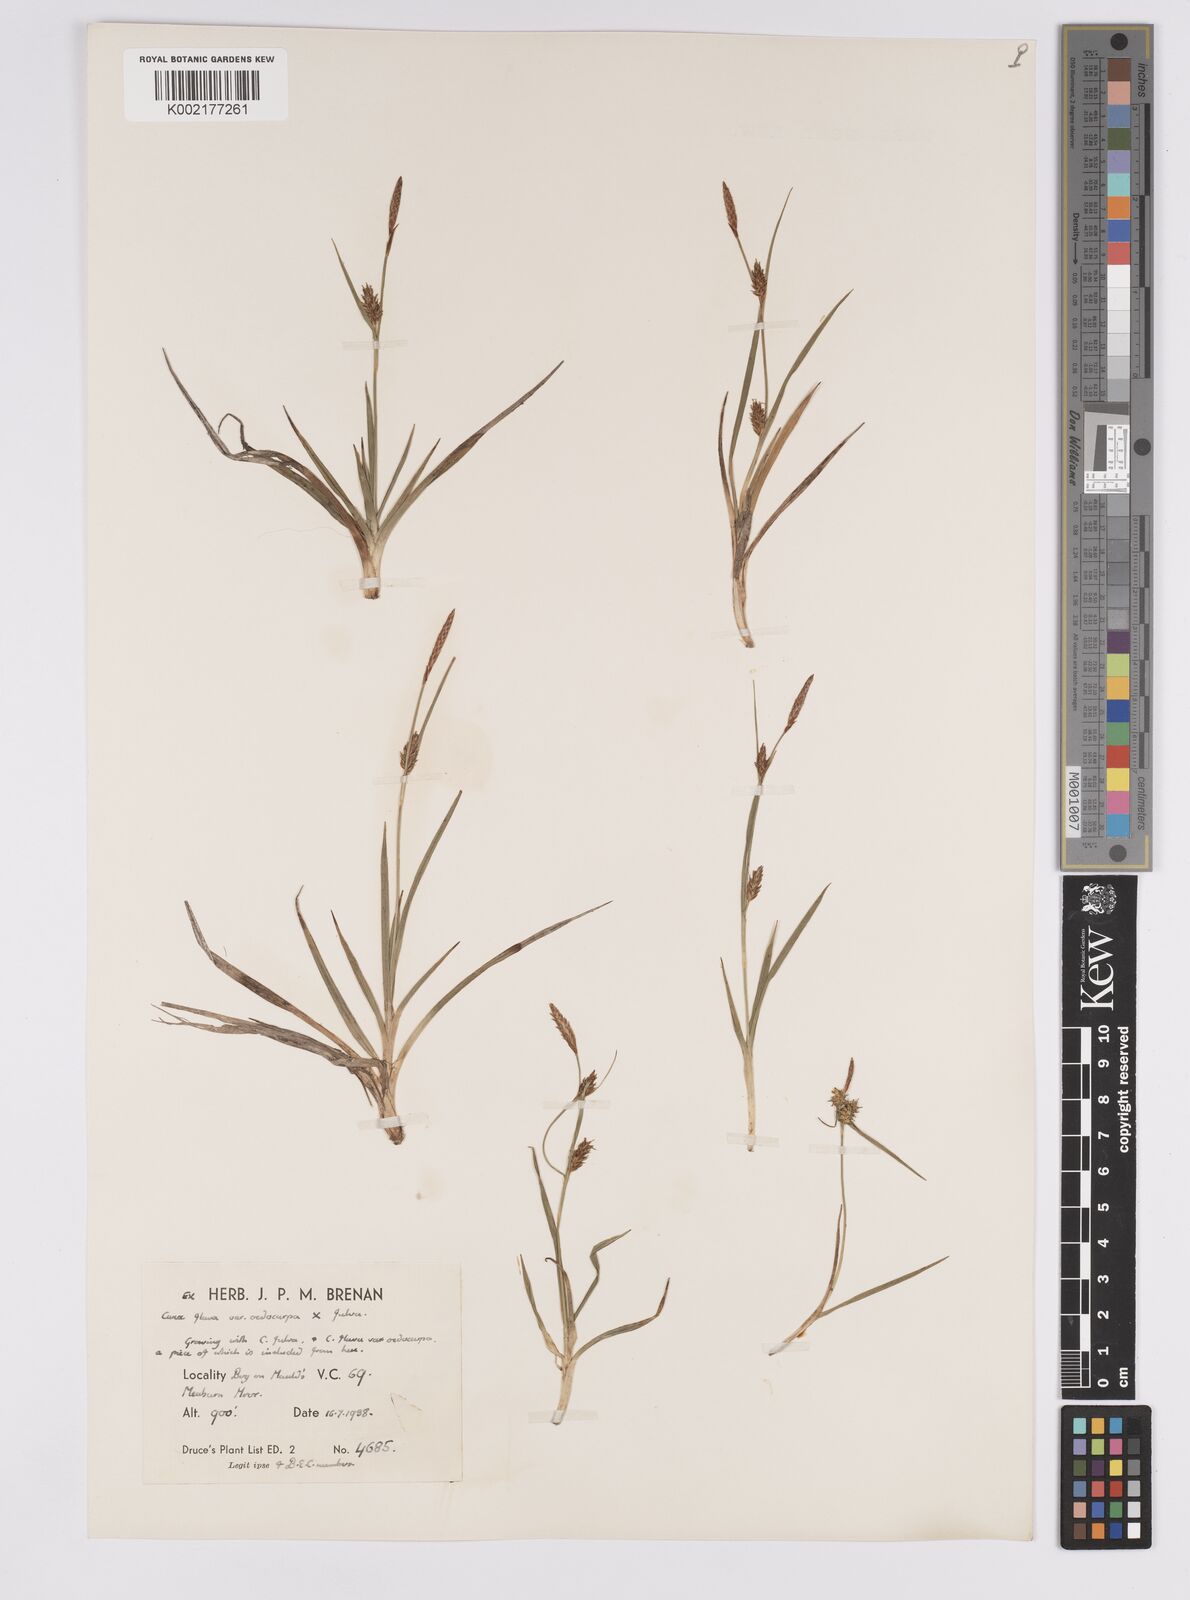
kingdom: Plantae
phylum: Tracheophyta
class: Liliopsida
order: Poales
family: Cyperaceae
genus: Carex
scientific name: Carex hostiana
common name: Tawny sedge
